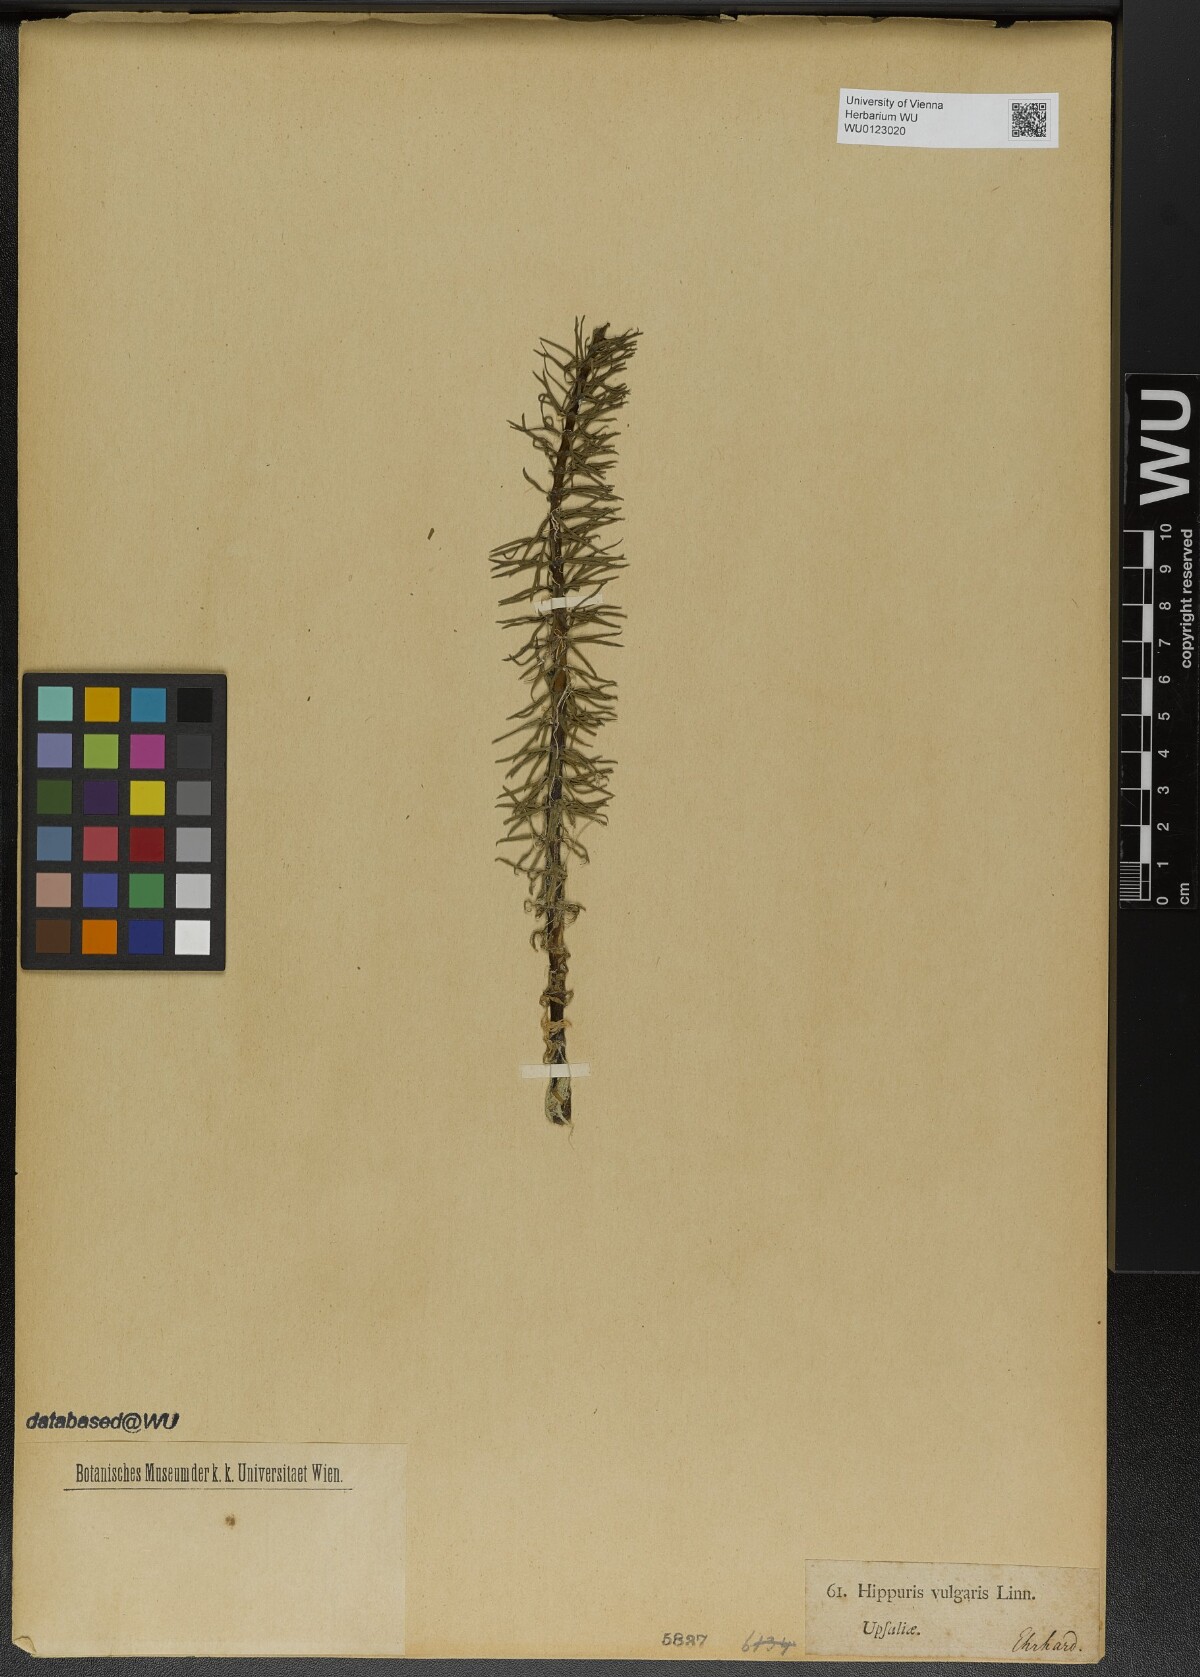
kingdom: Plantae
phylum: Tracheophyta
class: Magnoliopsida
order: Lamiales
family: Plantaginaceae
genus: Hippuris
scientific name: Hippuris vulgaris
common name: Mare's-tail
